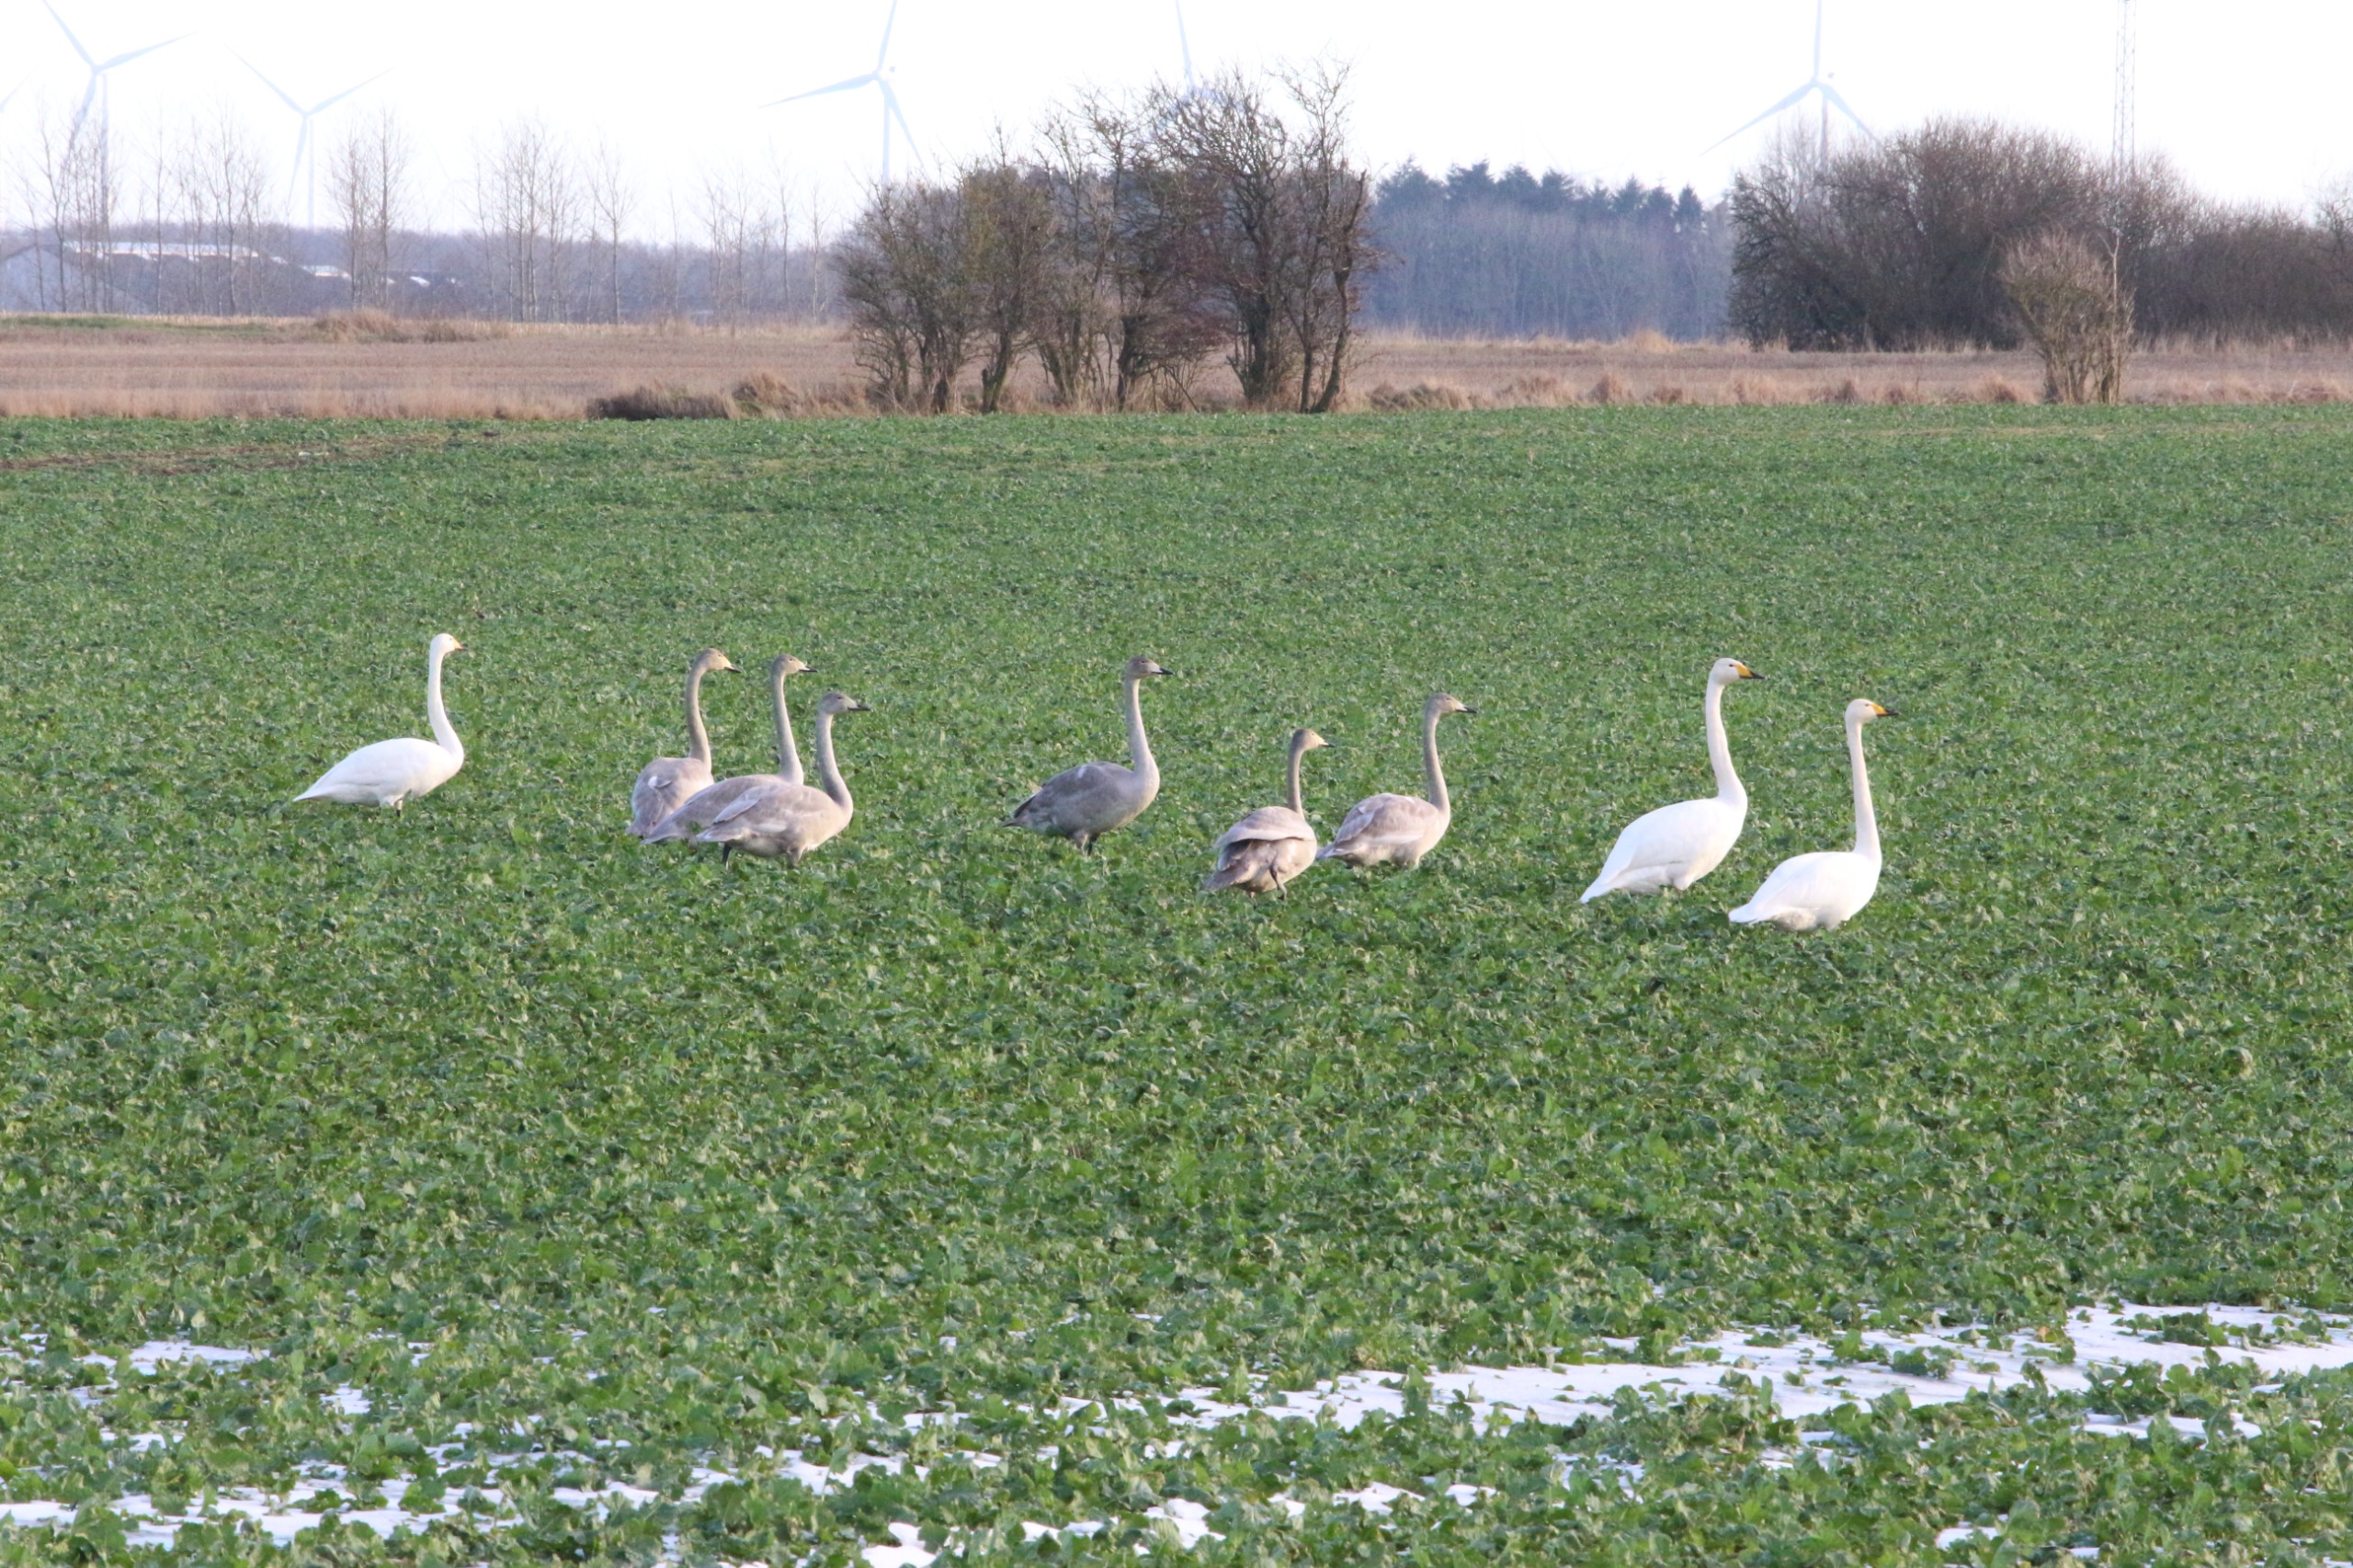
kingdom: Animalia
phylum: Chordata
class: Aves
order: Anseriformes
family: Anatidae
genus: Cygnus
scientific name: Cygnus cygnus
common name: Sangsvane
